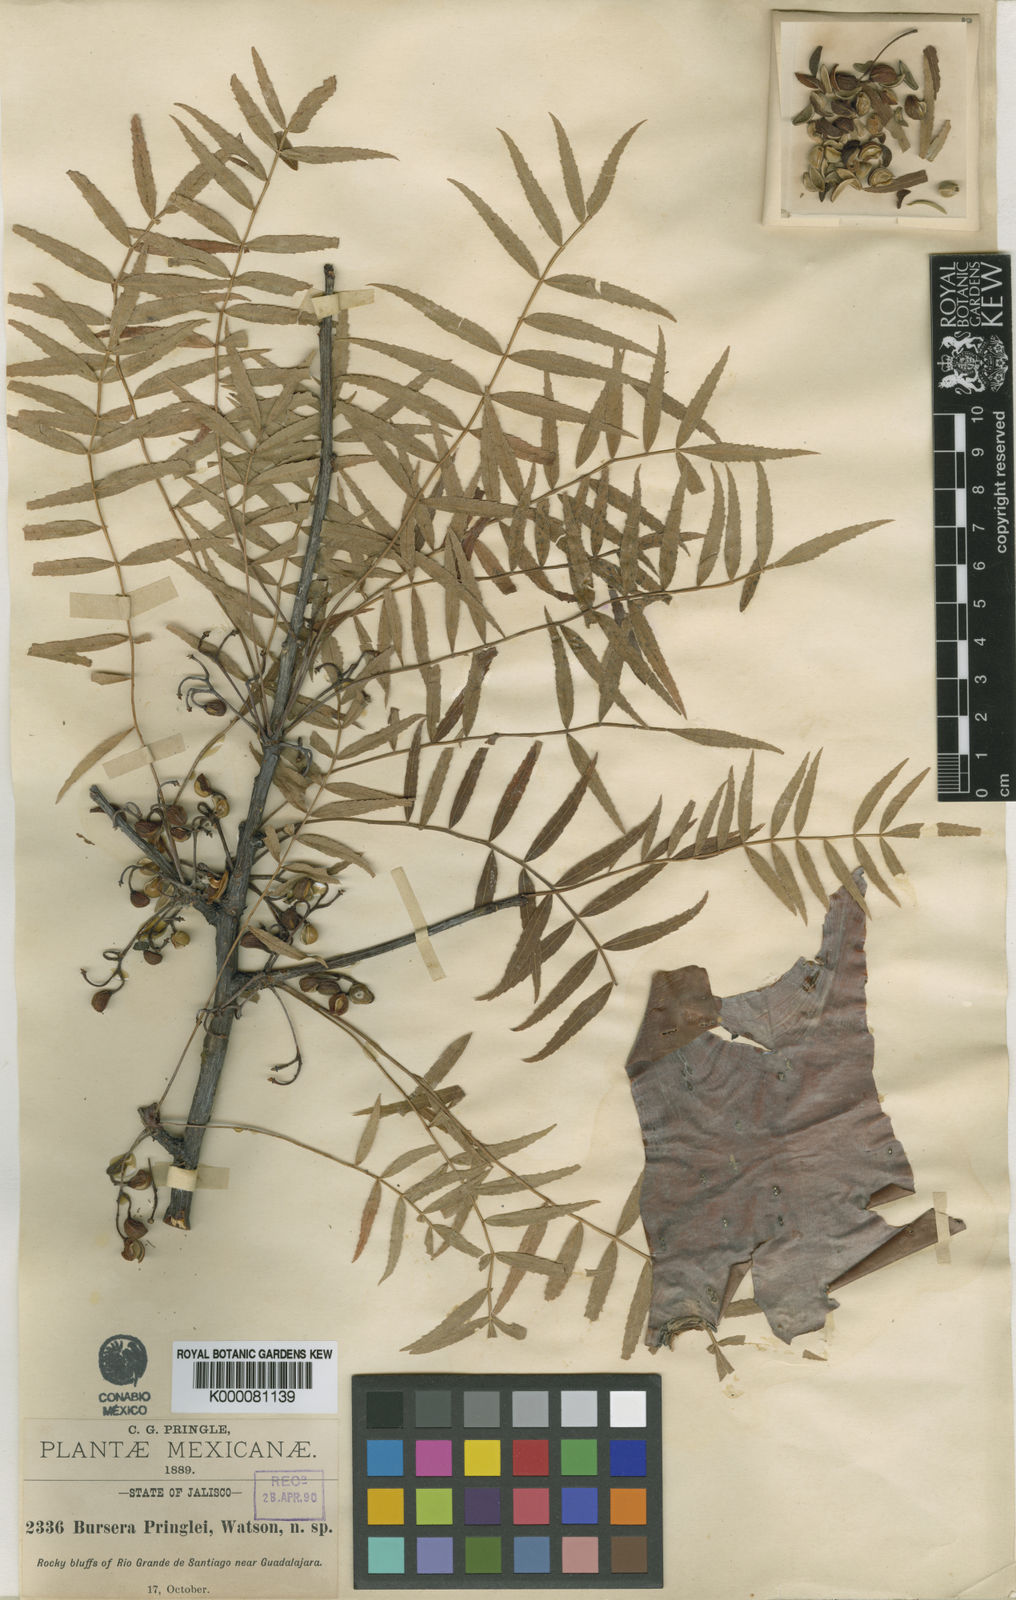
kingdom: Plantae
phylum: Tracheophyta
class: Magnoliopsida
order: Sapindales
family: Burseraceae
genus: Bursera
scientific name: Bursera multijuga
